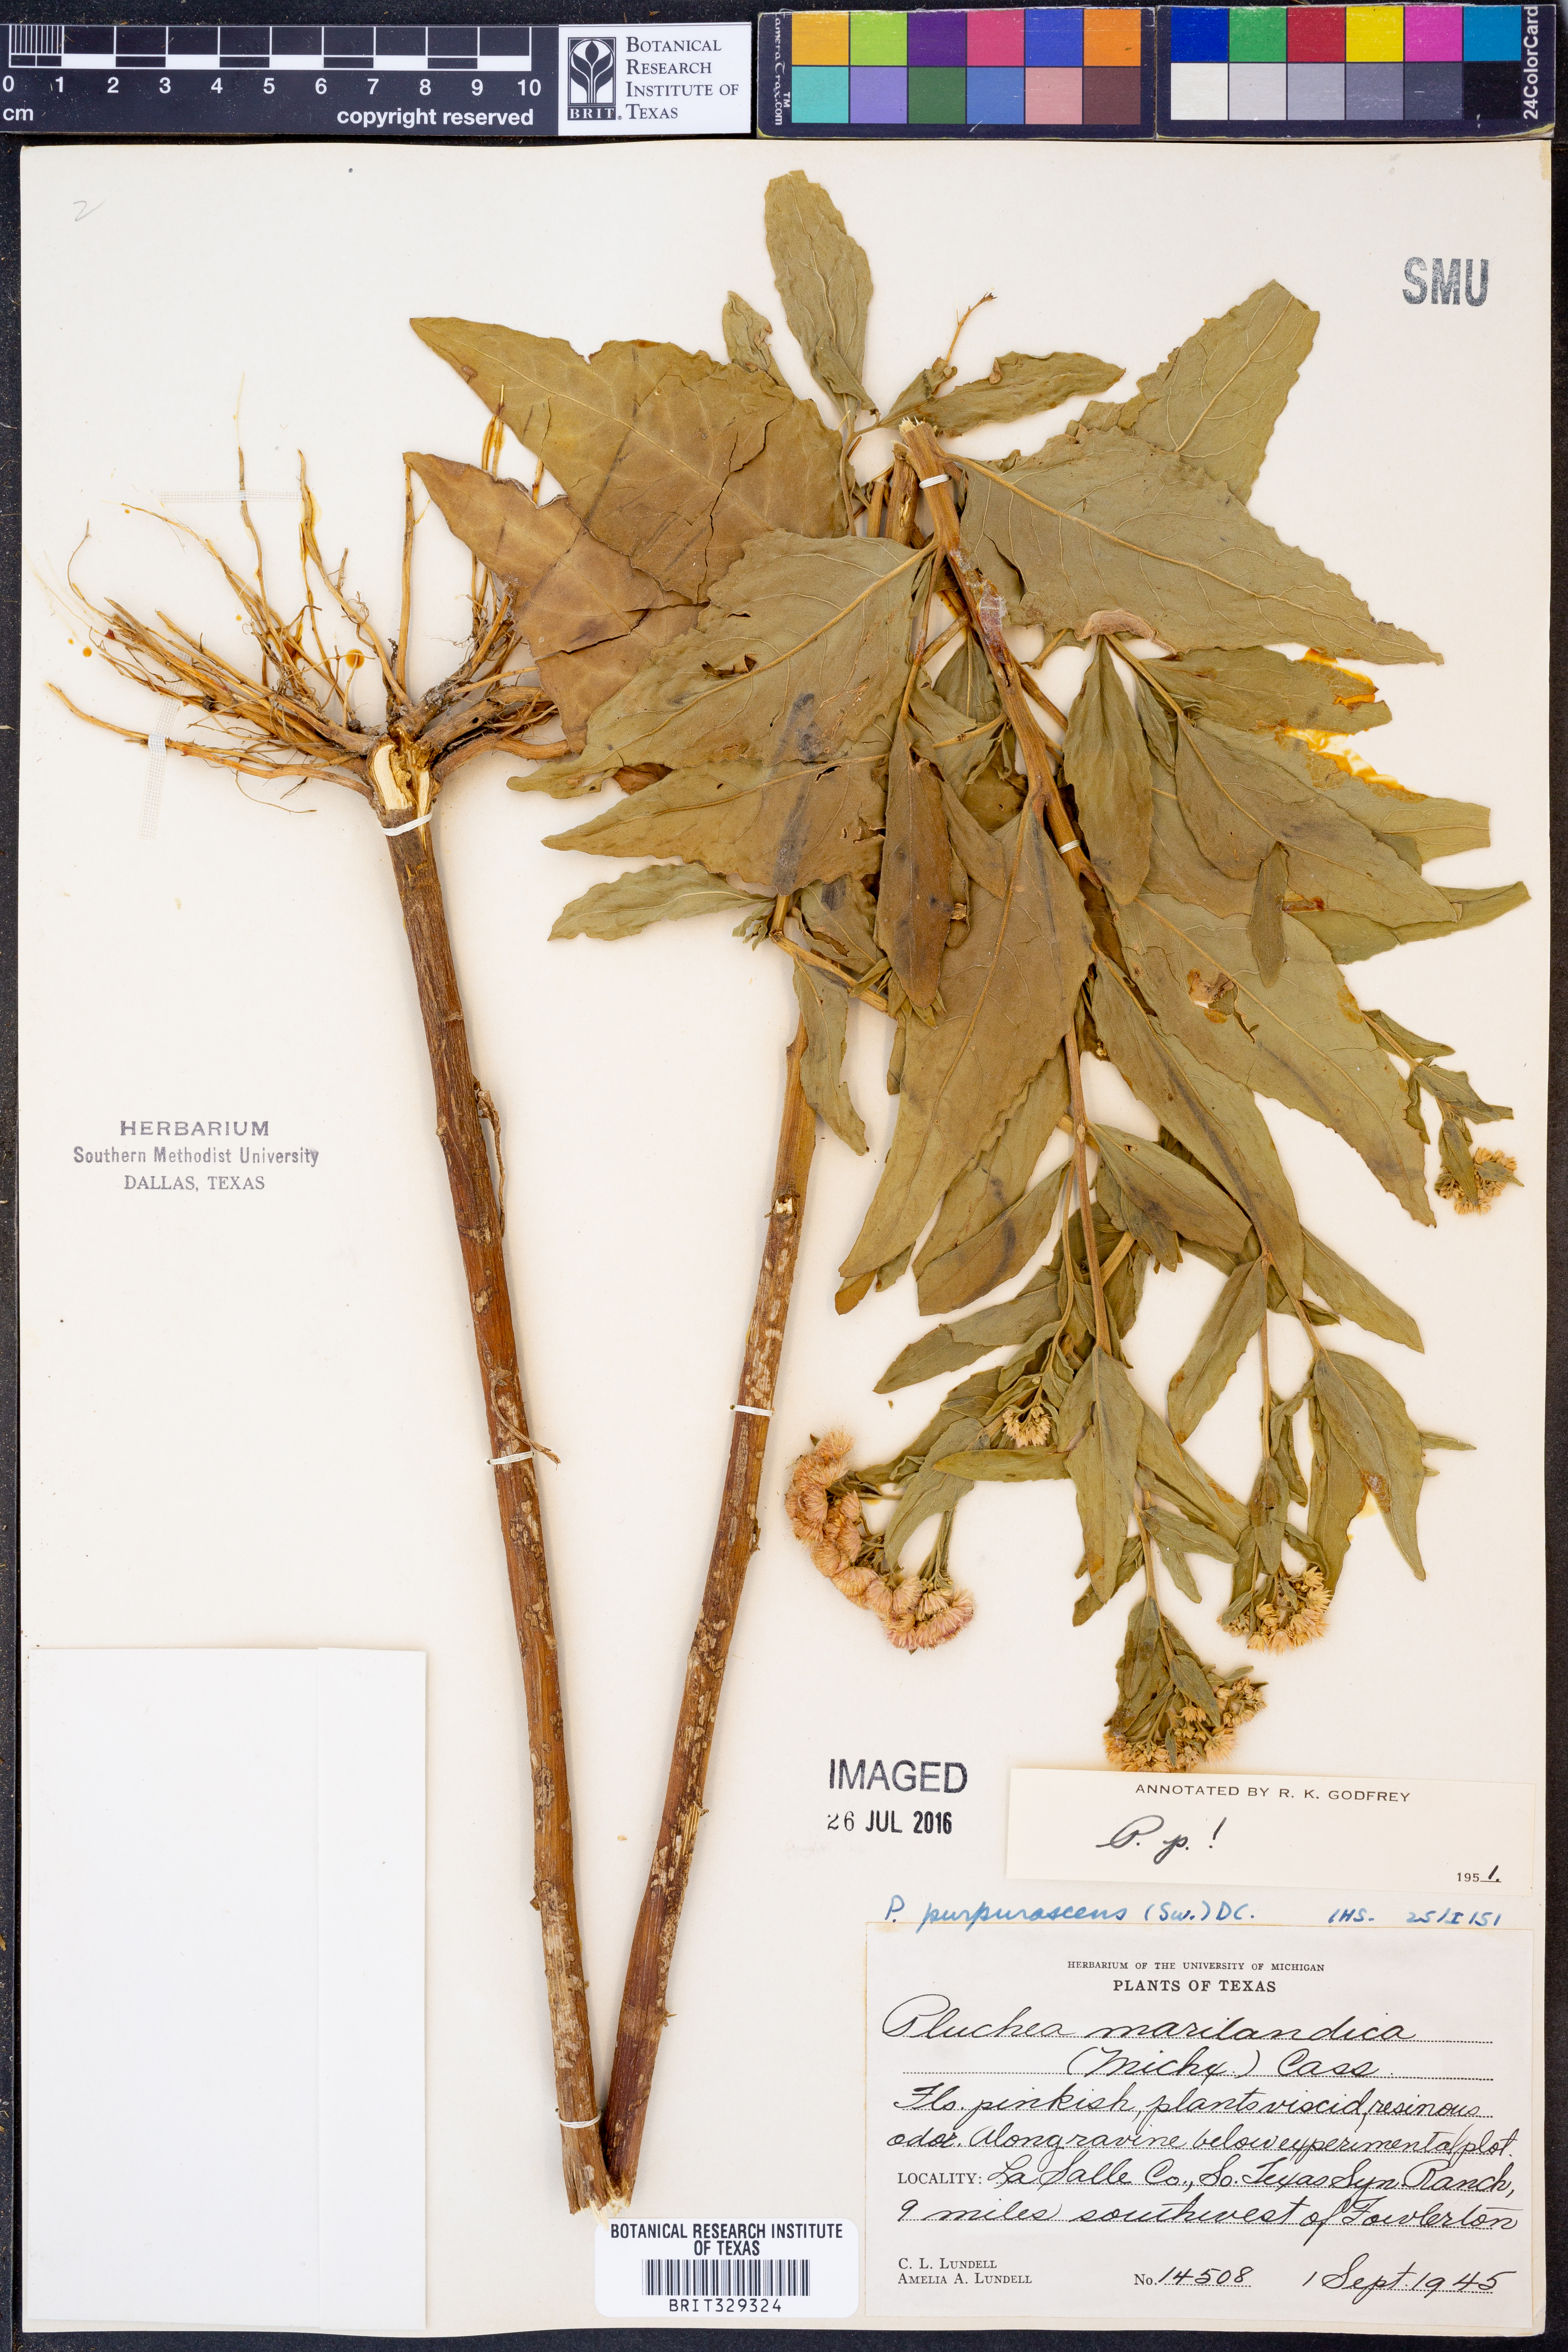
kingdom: Plantae
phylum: Tracheophyta
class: Magnoliopsida
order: Asterales
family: Asteraceae
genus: Pluchea
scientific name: Pluchea odorata
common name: Saltmarsh fleabane
